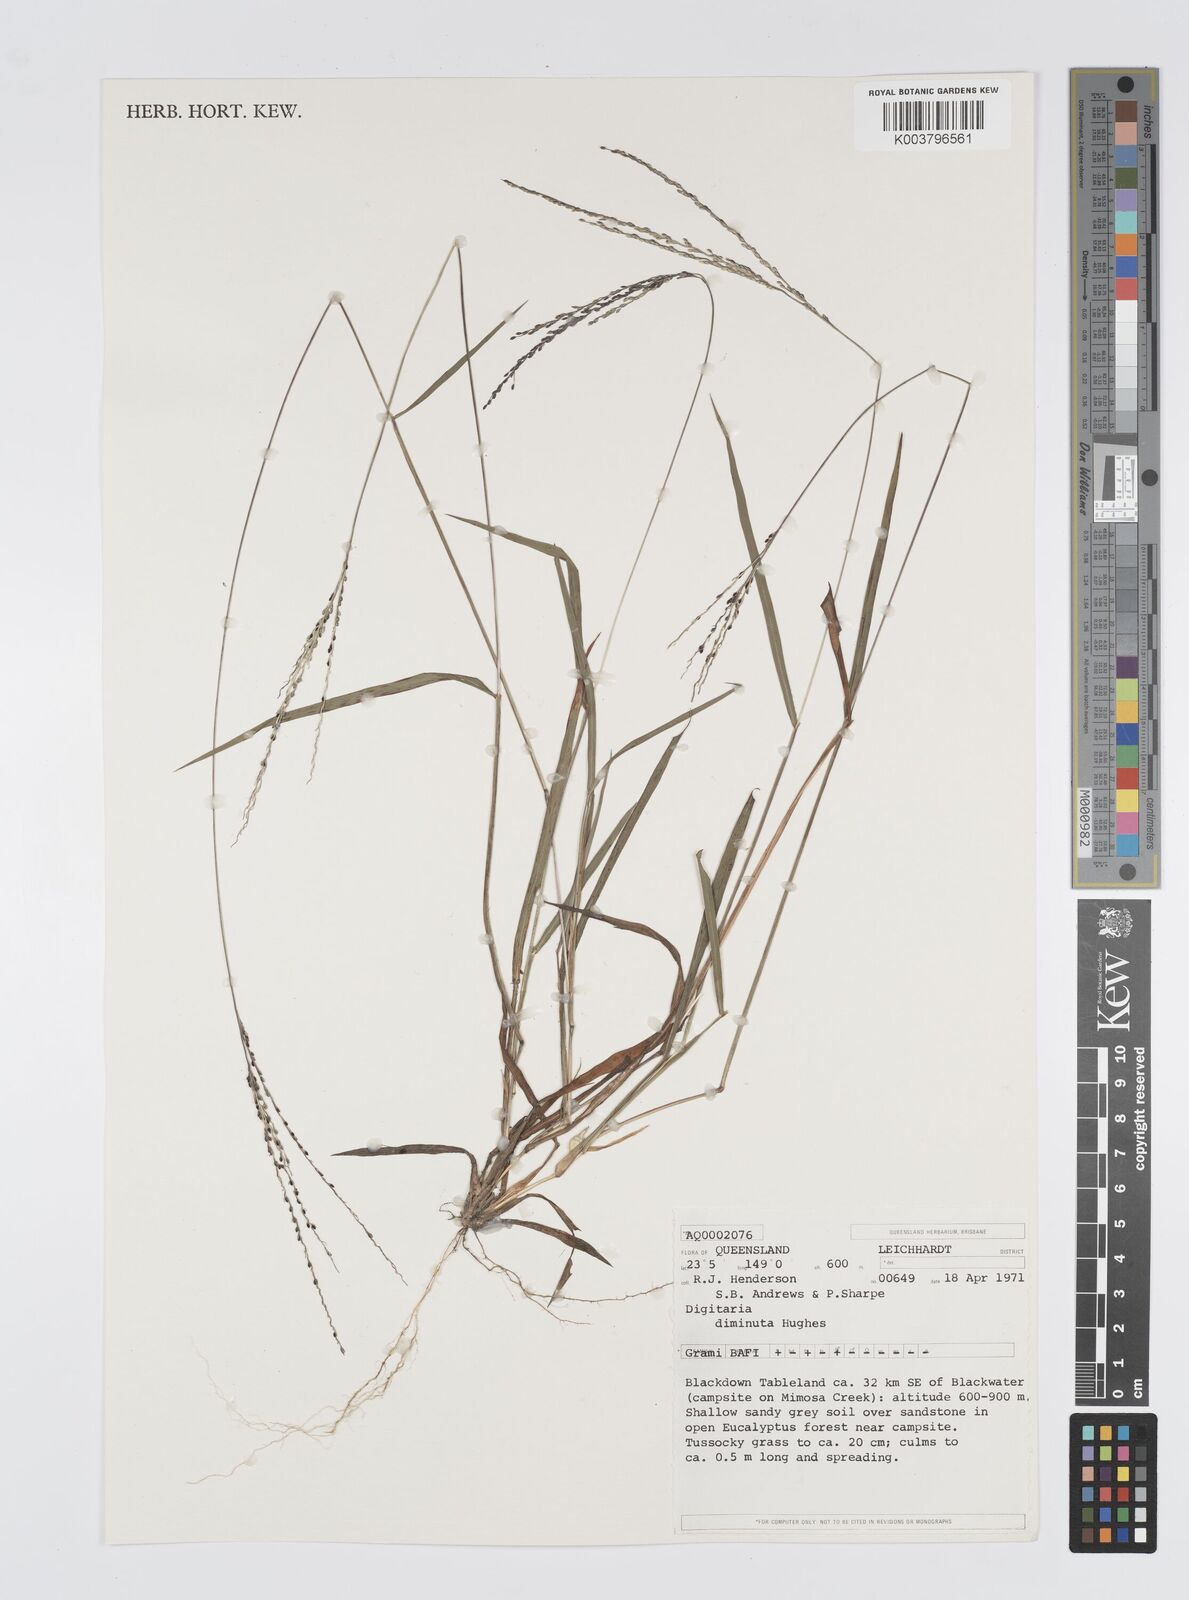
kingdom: Plantae
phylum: Tracheophyta
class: Liliopsida
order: Poales
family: Poaceae
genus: Digitaria
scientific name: Digitaria breviglumis
